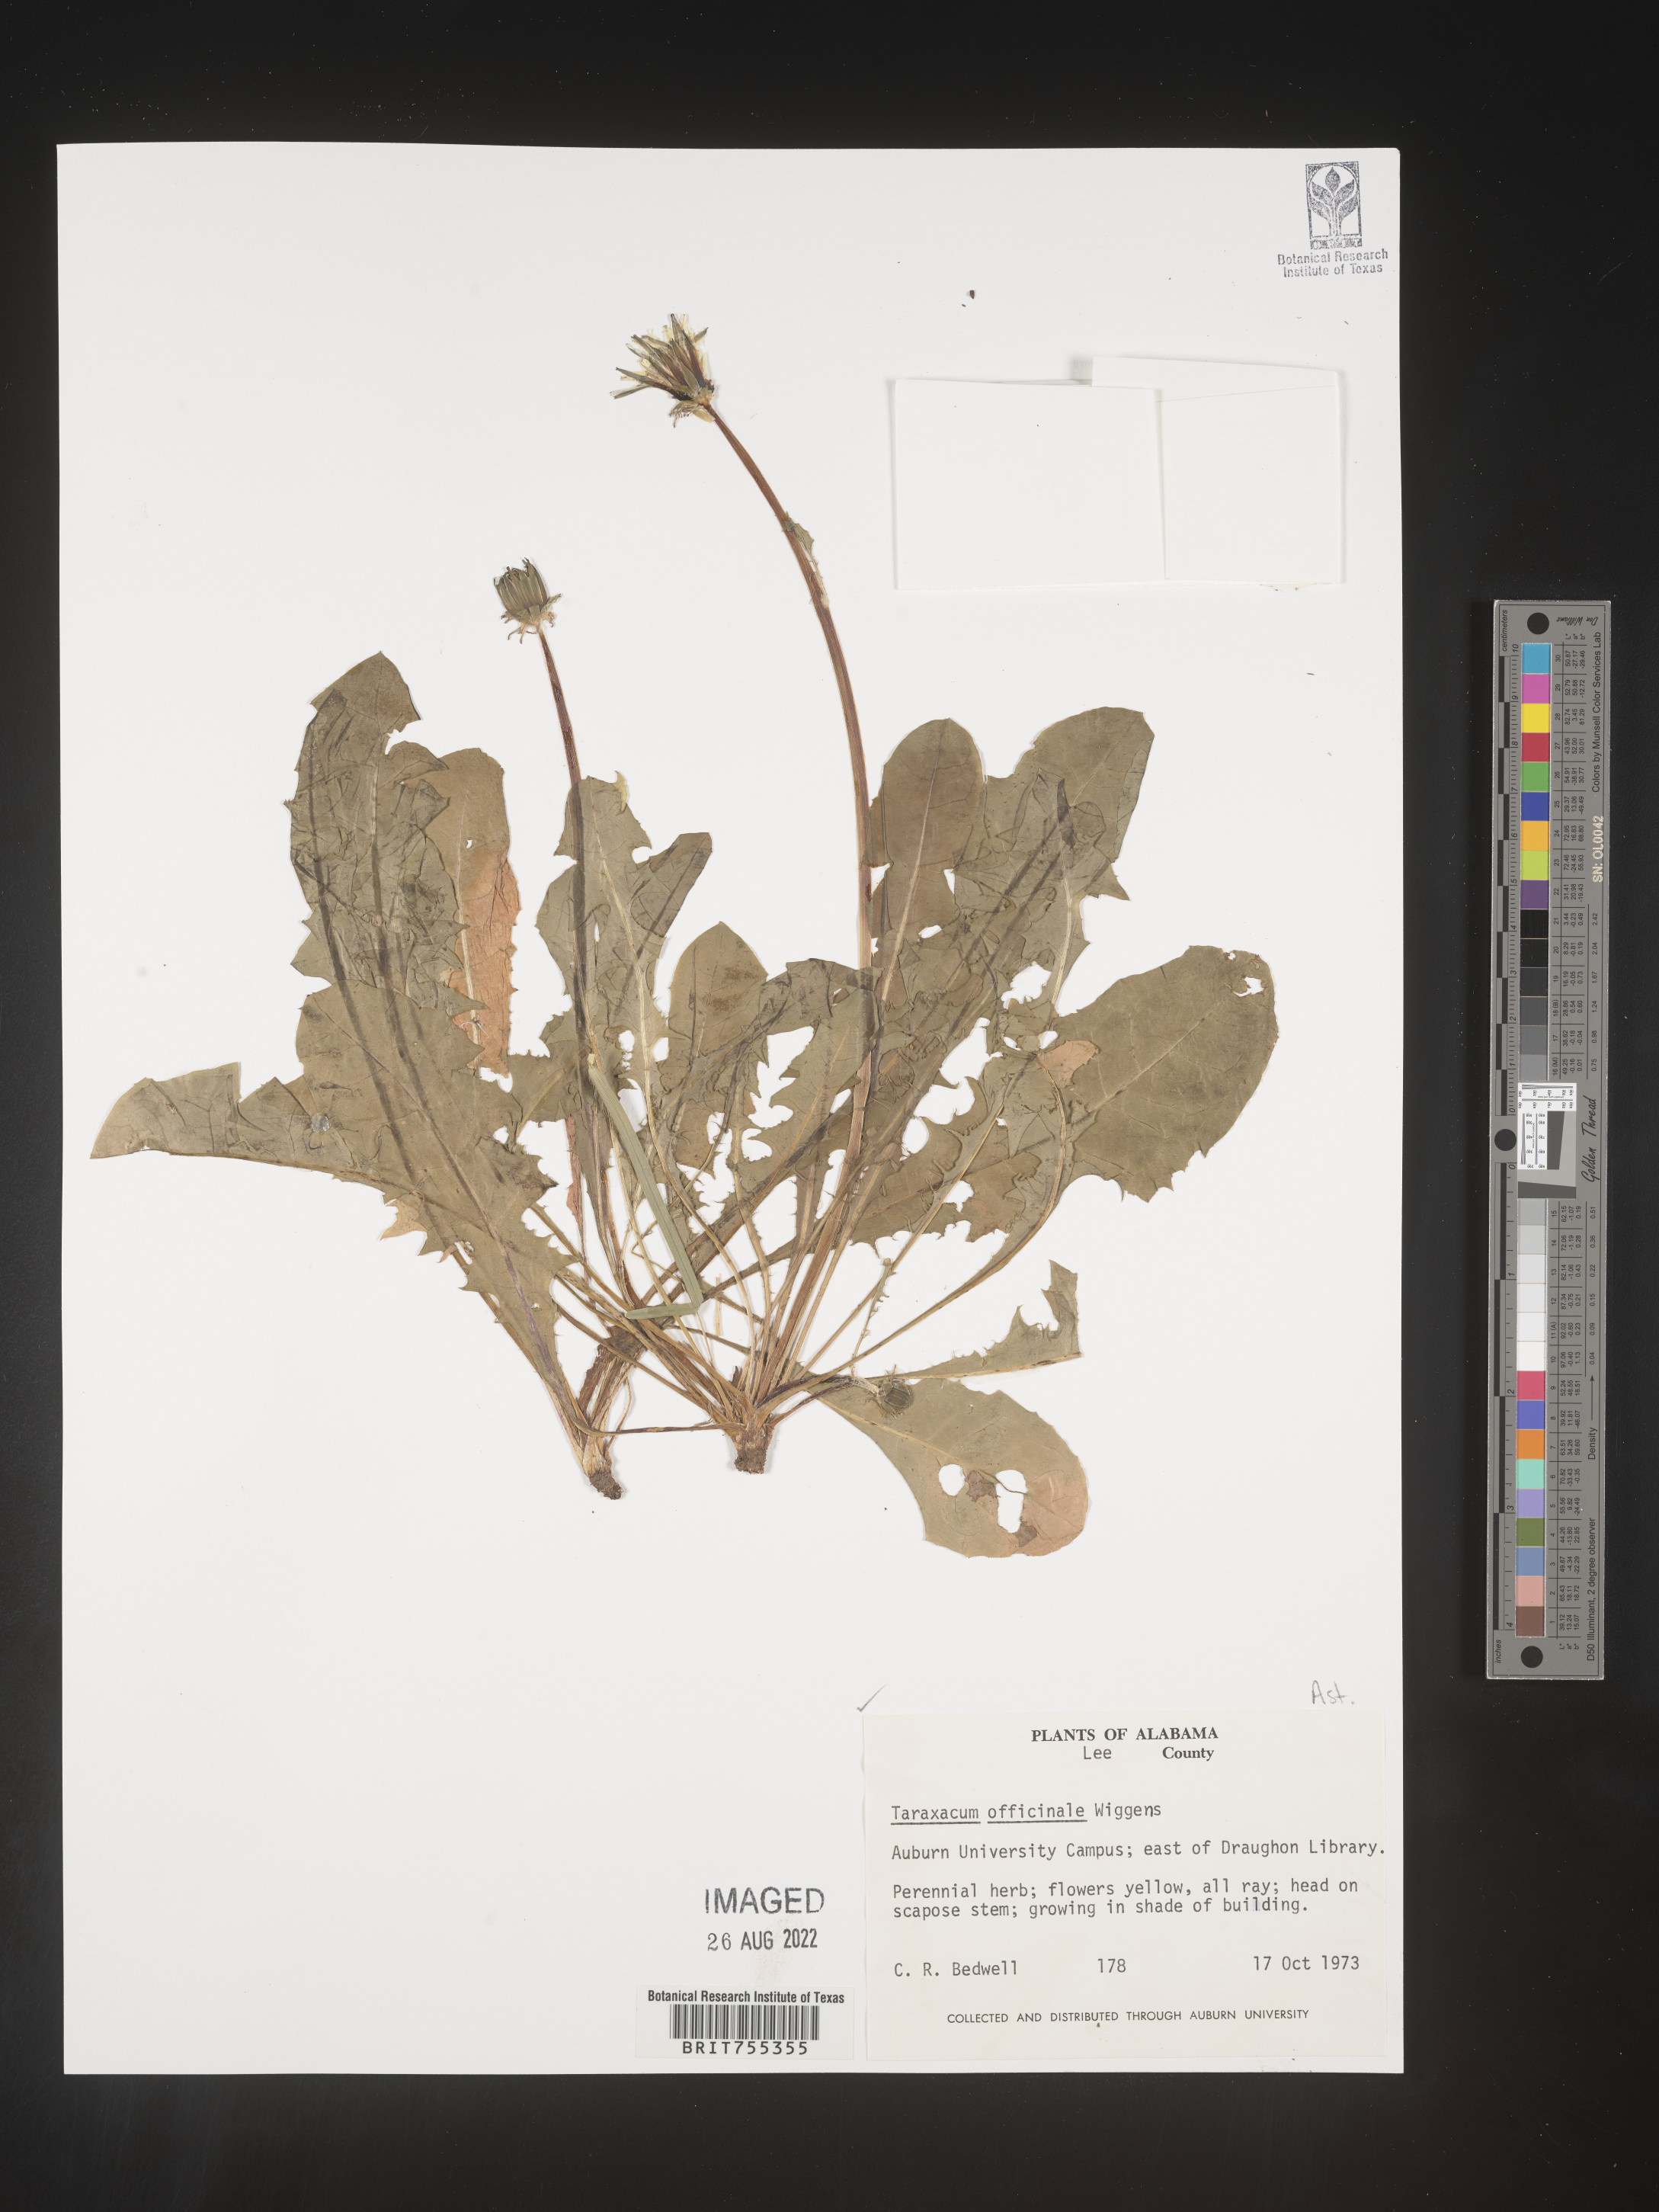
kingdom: Plantae
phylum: Tracheophyta
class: Magnoliopsida
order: Asterales
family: Asteraceae
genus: Taraxacum
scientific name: Taraxacum officinale
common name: Common dandelion
